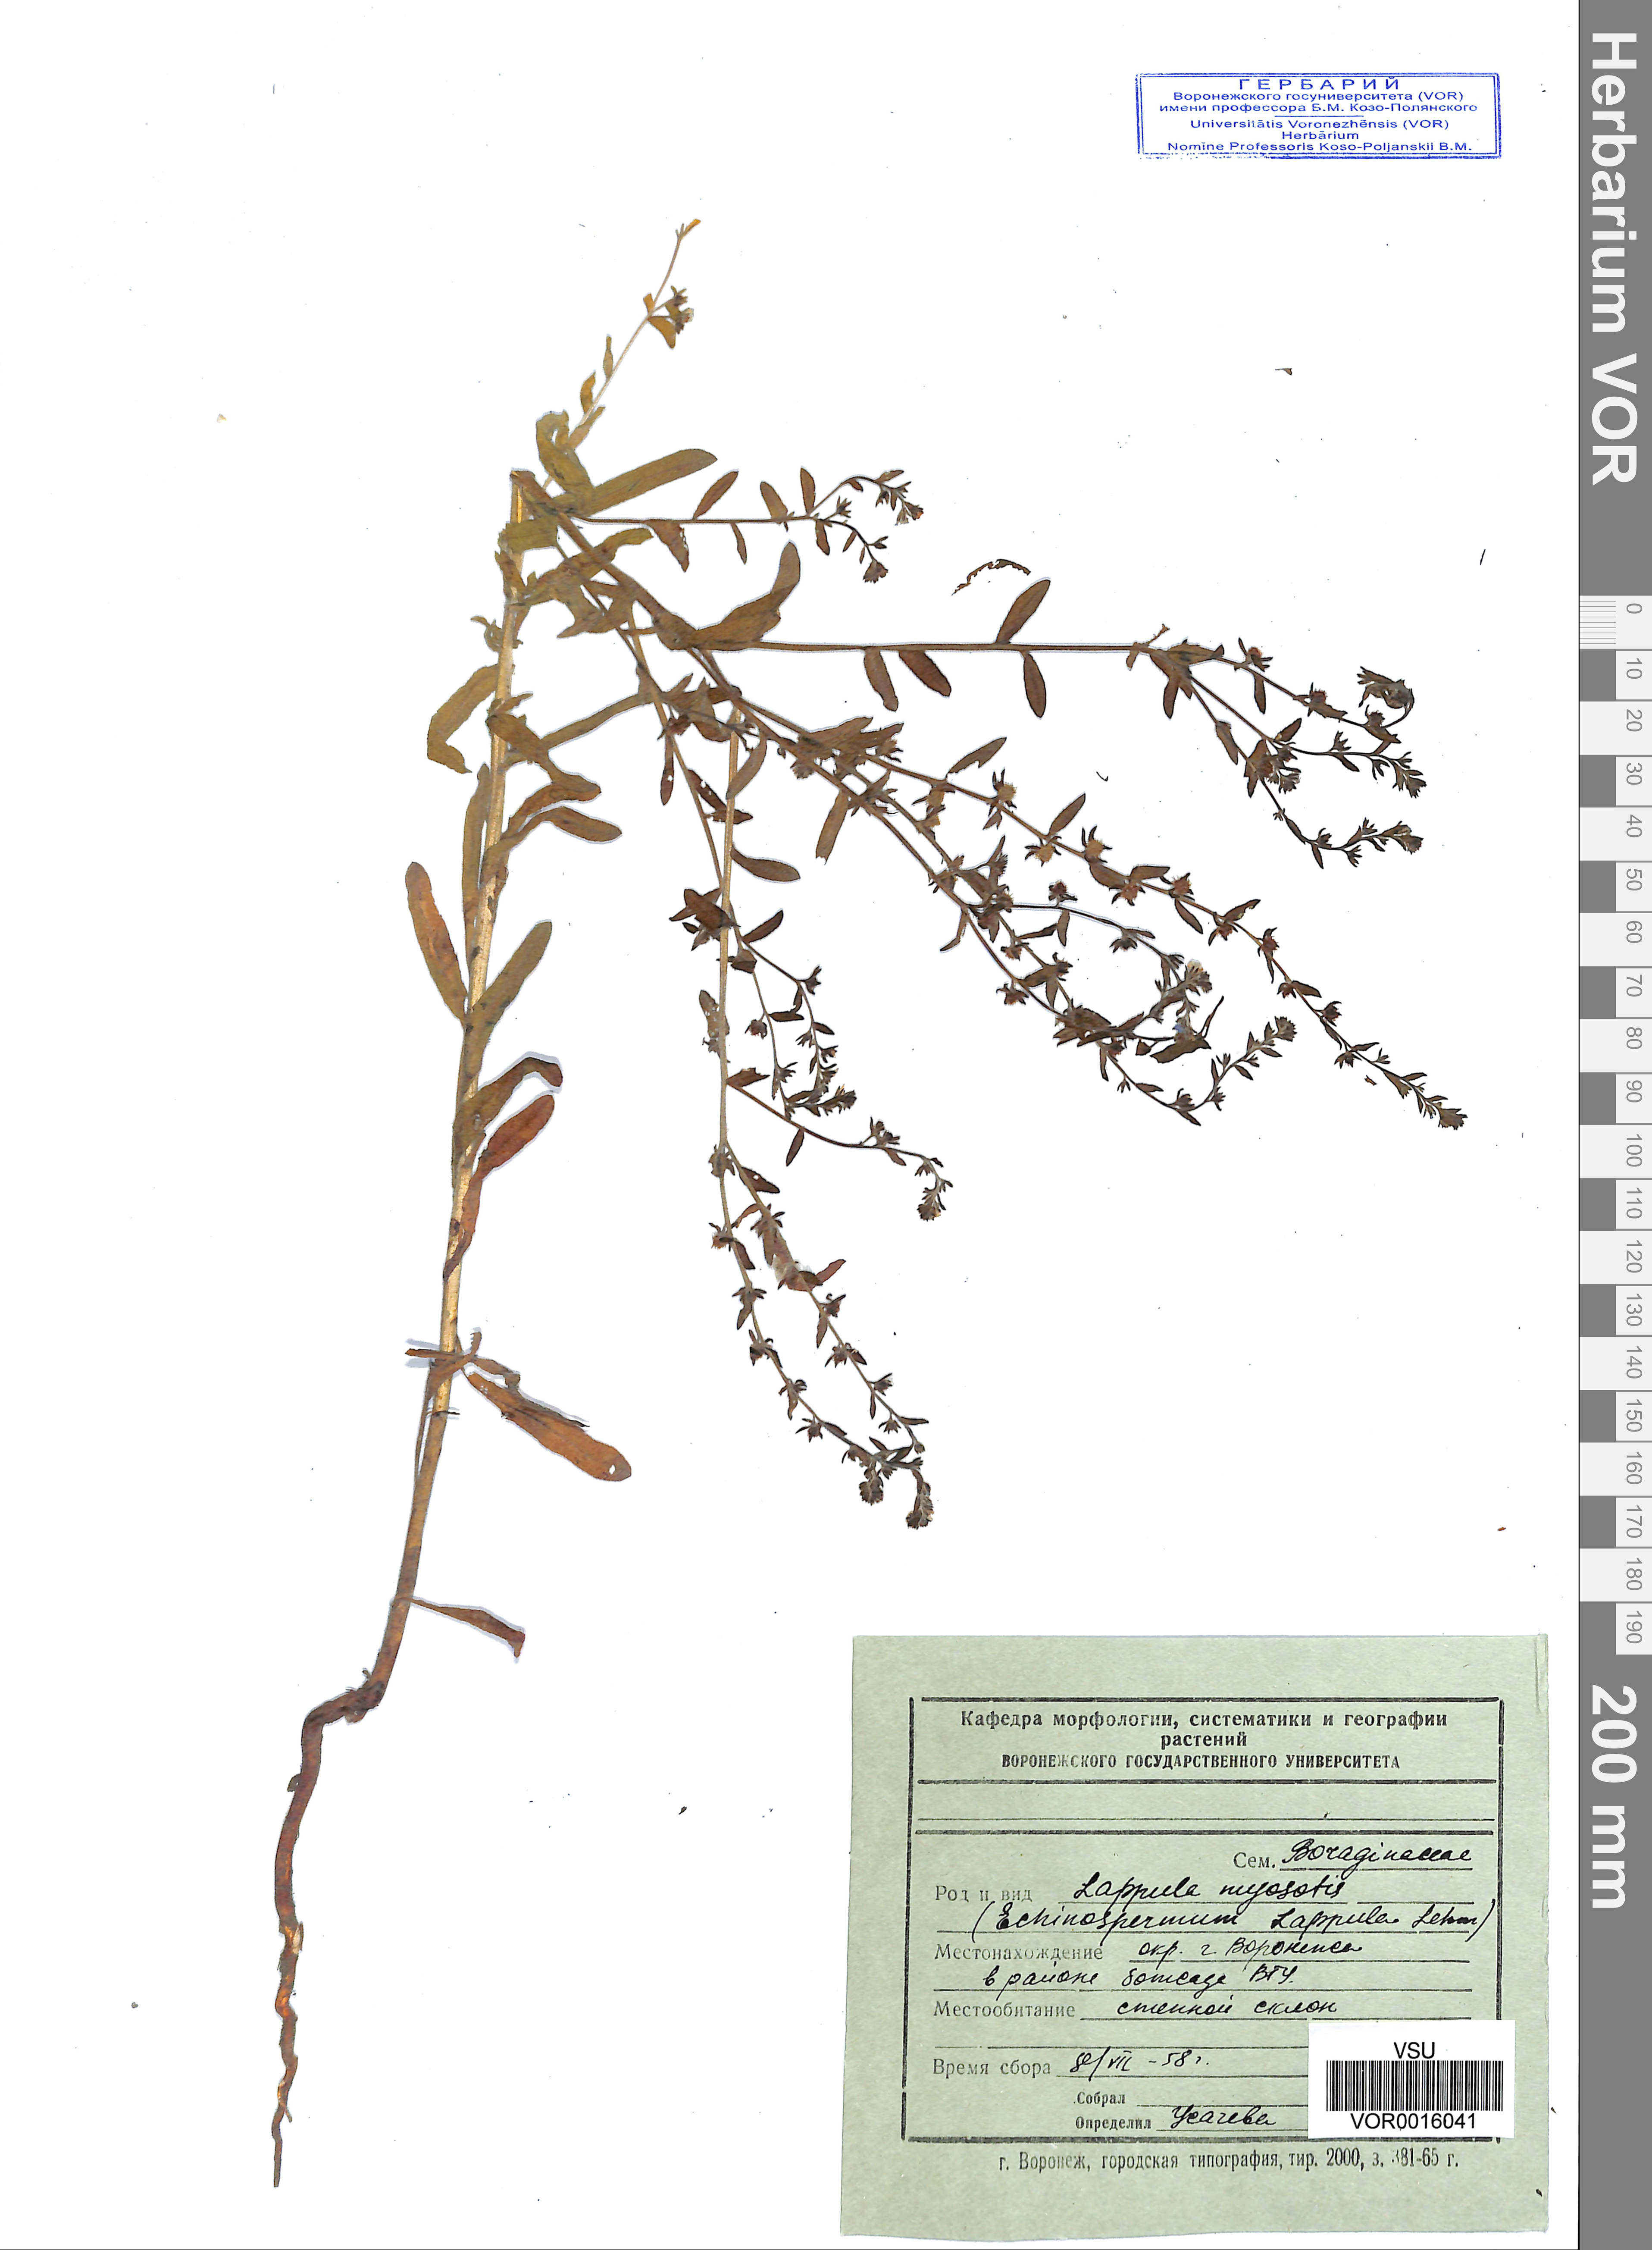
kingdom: Plantae
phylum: Tracheophyta
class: Magnoliopsida
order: Boraginales
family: Boraginaceae
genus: Lappula
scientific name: Lappula squarrosa
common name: European stickseed
